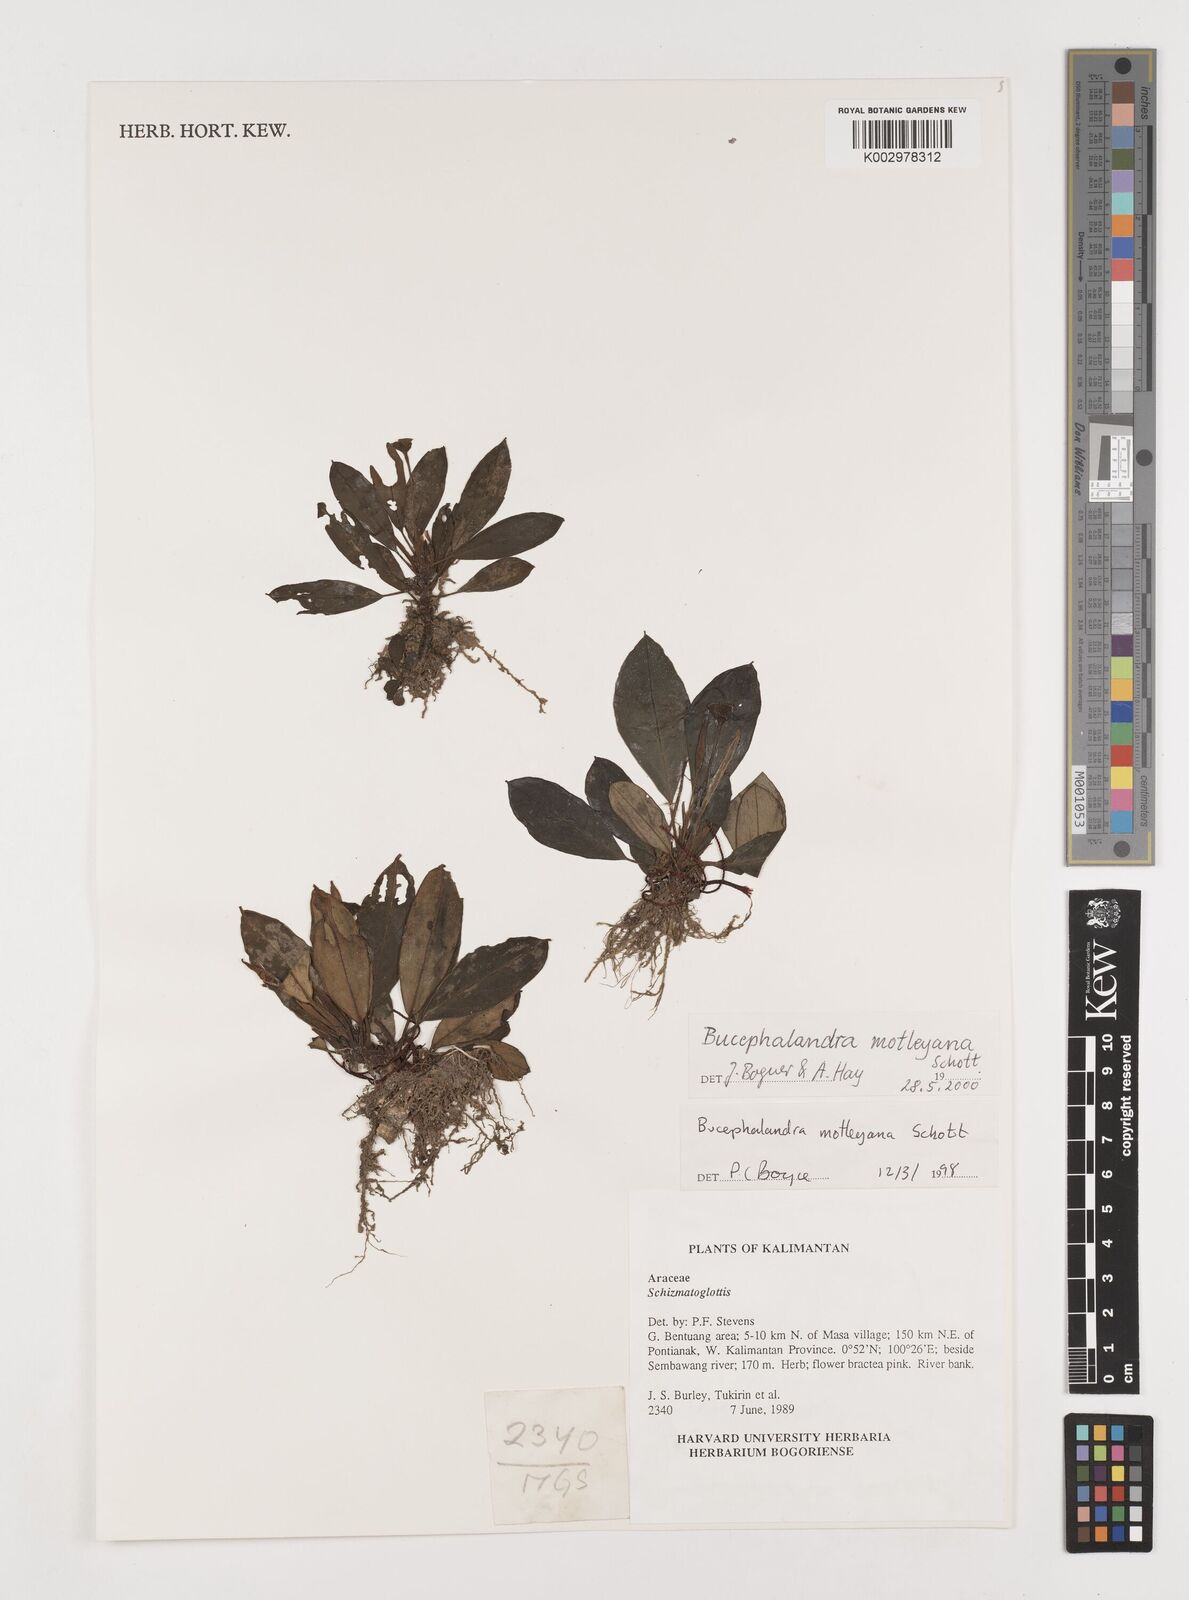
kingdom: Plantae
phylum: Tracheophyta
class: Liliopsida
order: Alismatales
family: Araceae
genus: Bucephalandra
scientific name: Bucephalandra motleyana
